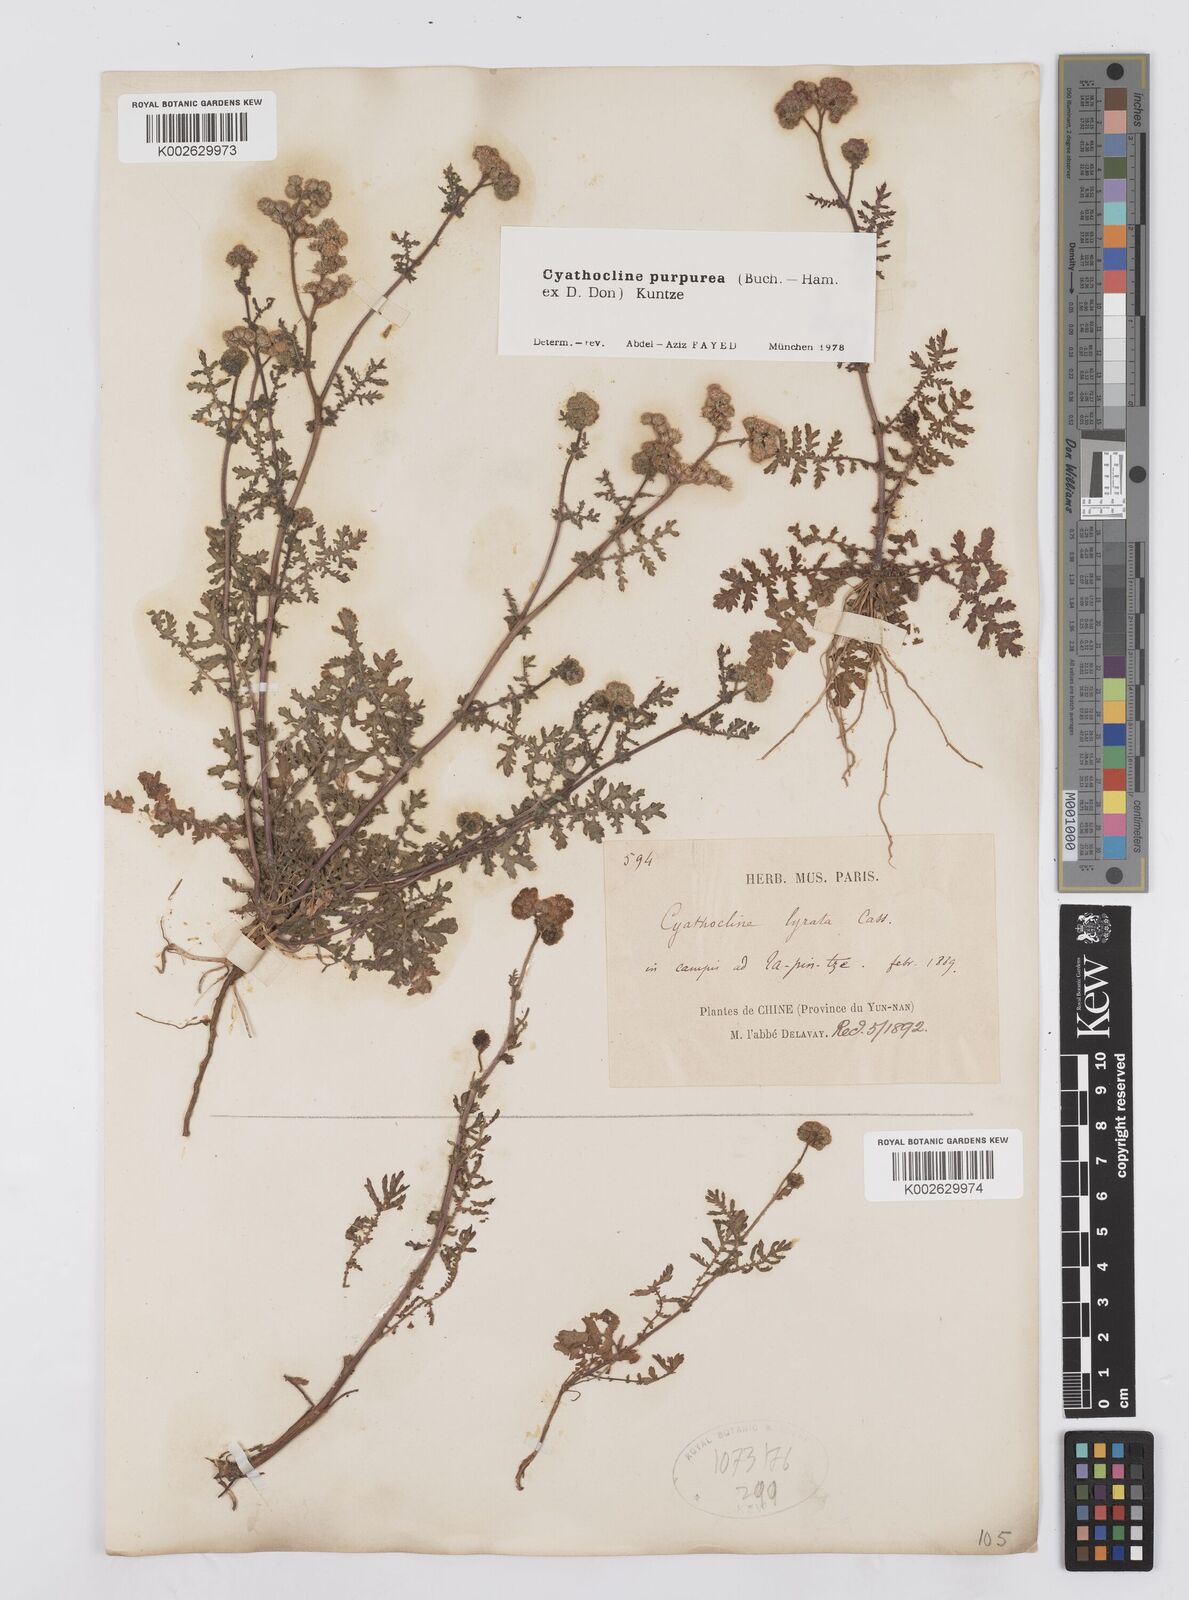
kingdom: Plantae
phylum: Tracheophyta
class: Magnoliopsida
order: Asterales
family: Asteraceae
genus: Cyathocline
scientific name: Cyathocline purpurea
